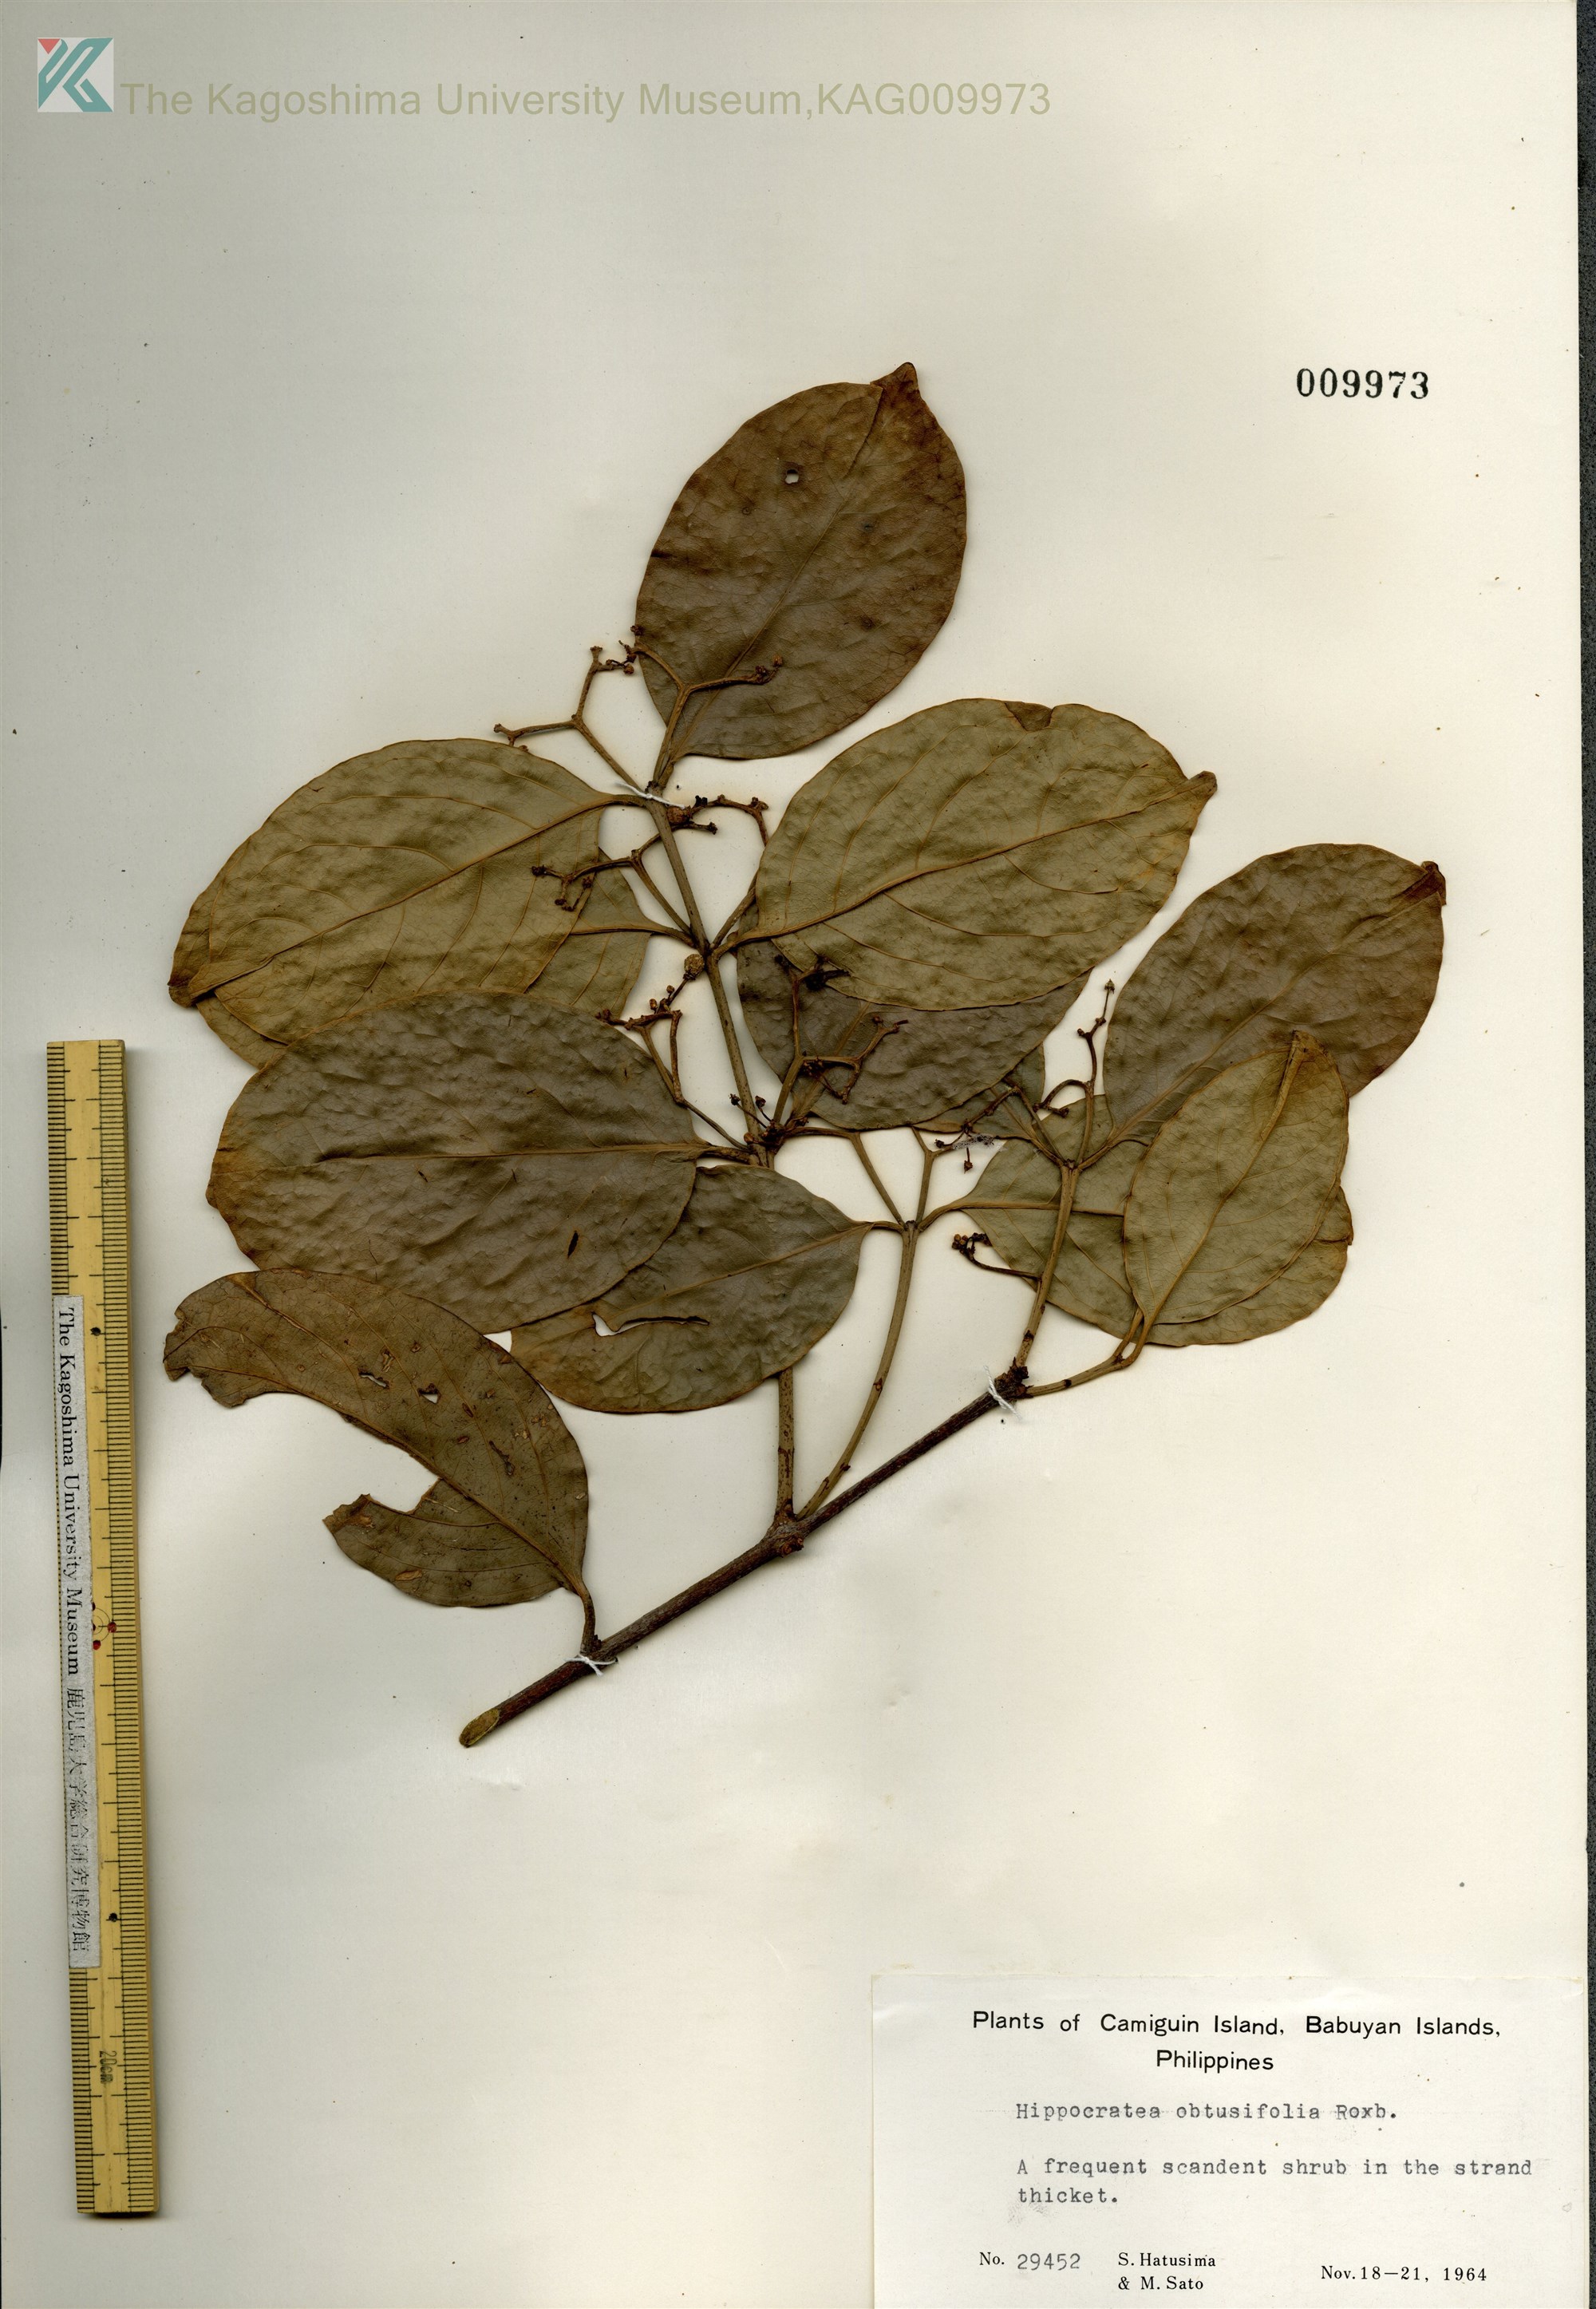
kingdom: Plantae
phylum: Tracheophyta
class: Magnoliopsida
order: Celastrales
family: Celastraceae
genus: Loeseneriella
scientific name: Loeseneriella obtusifolia
